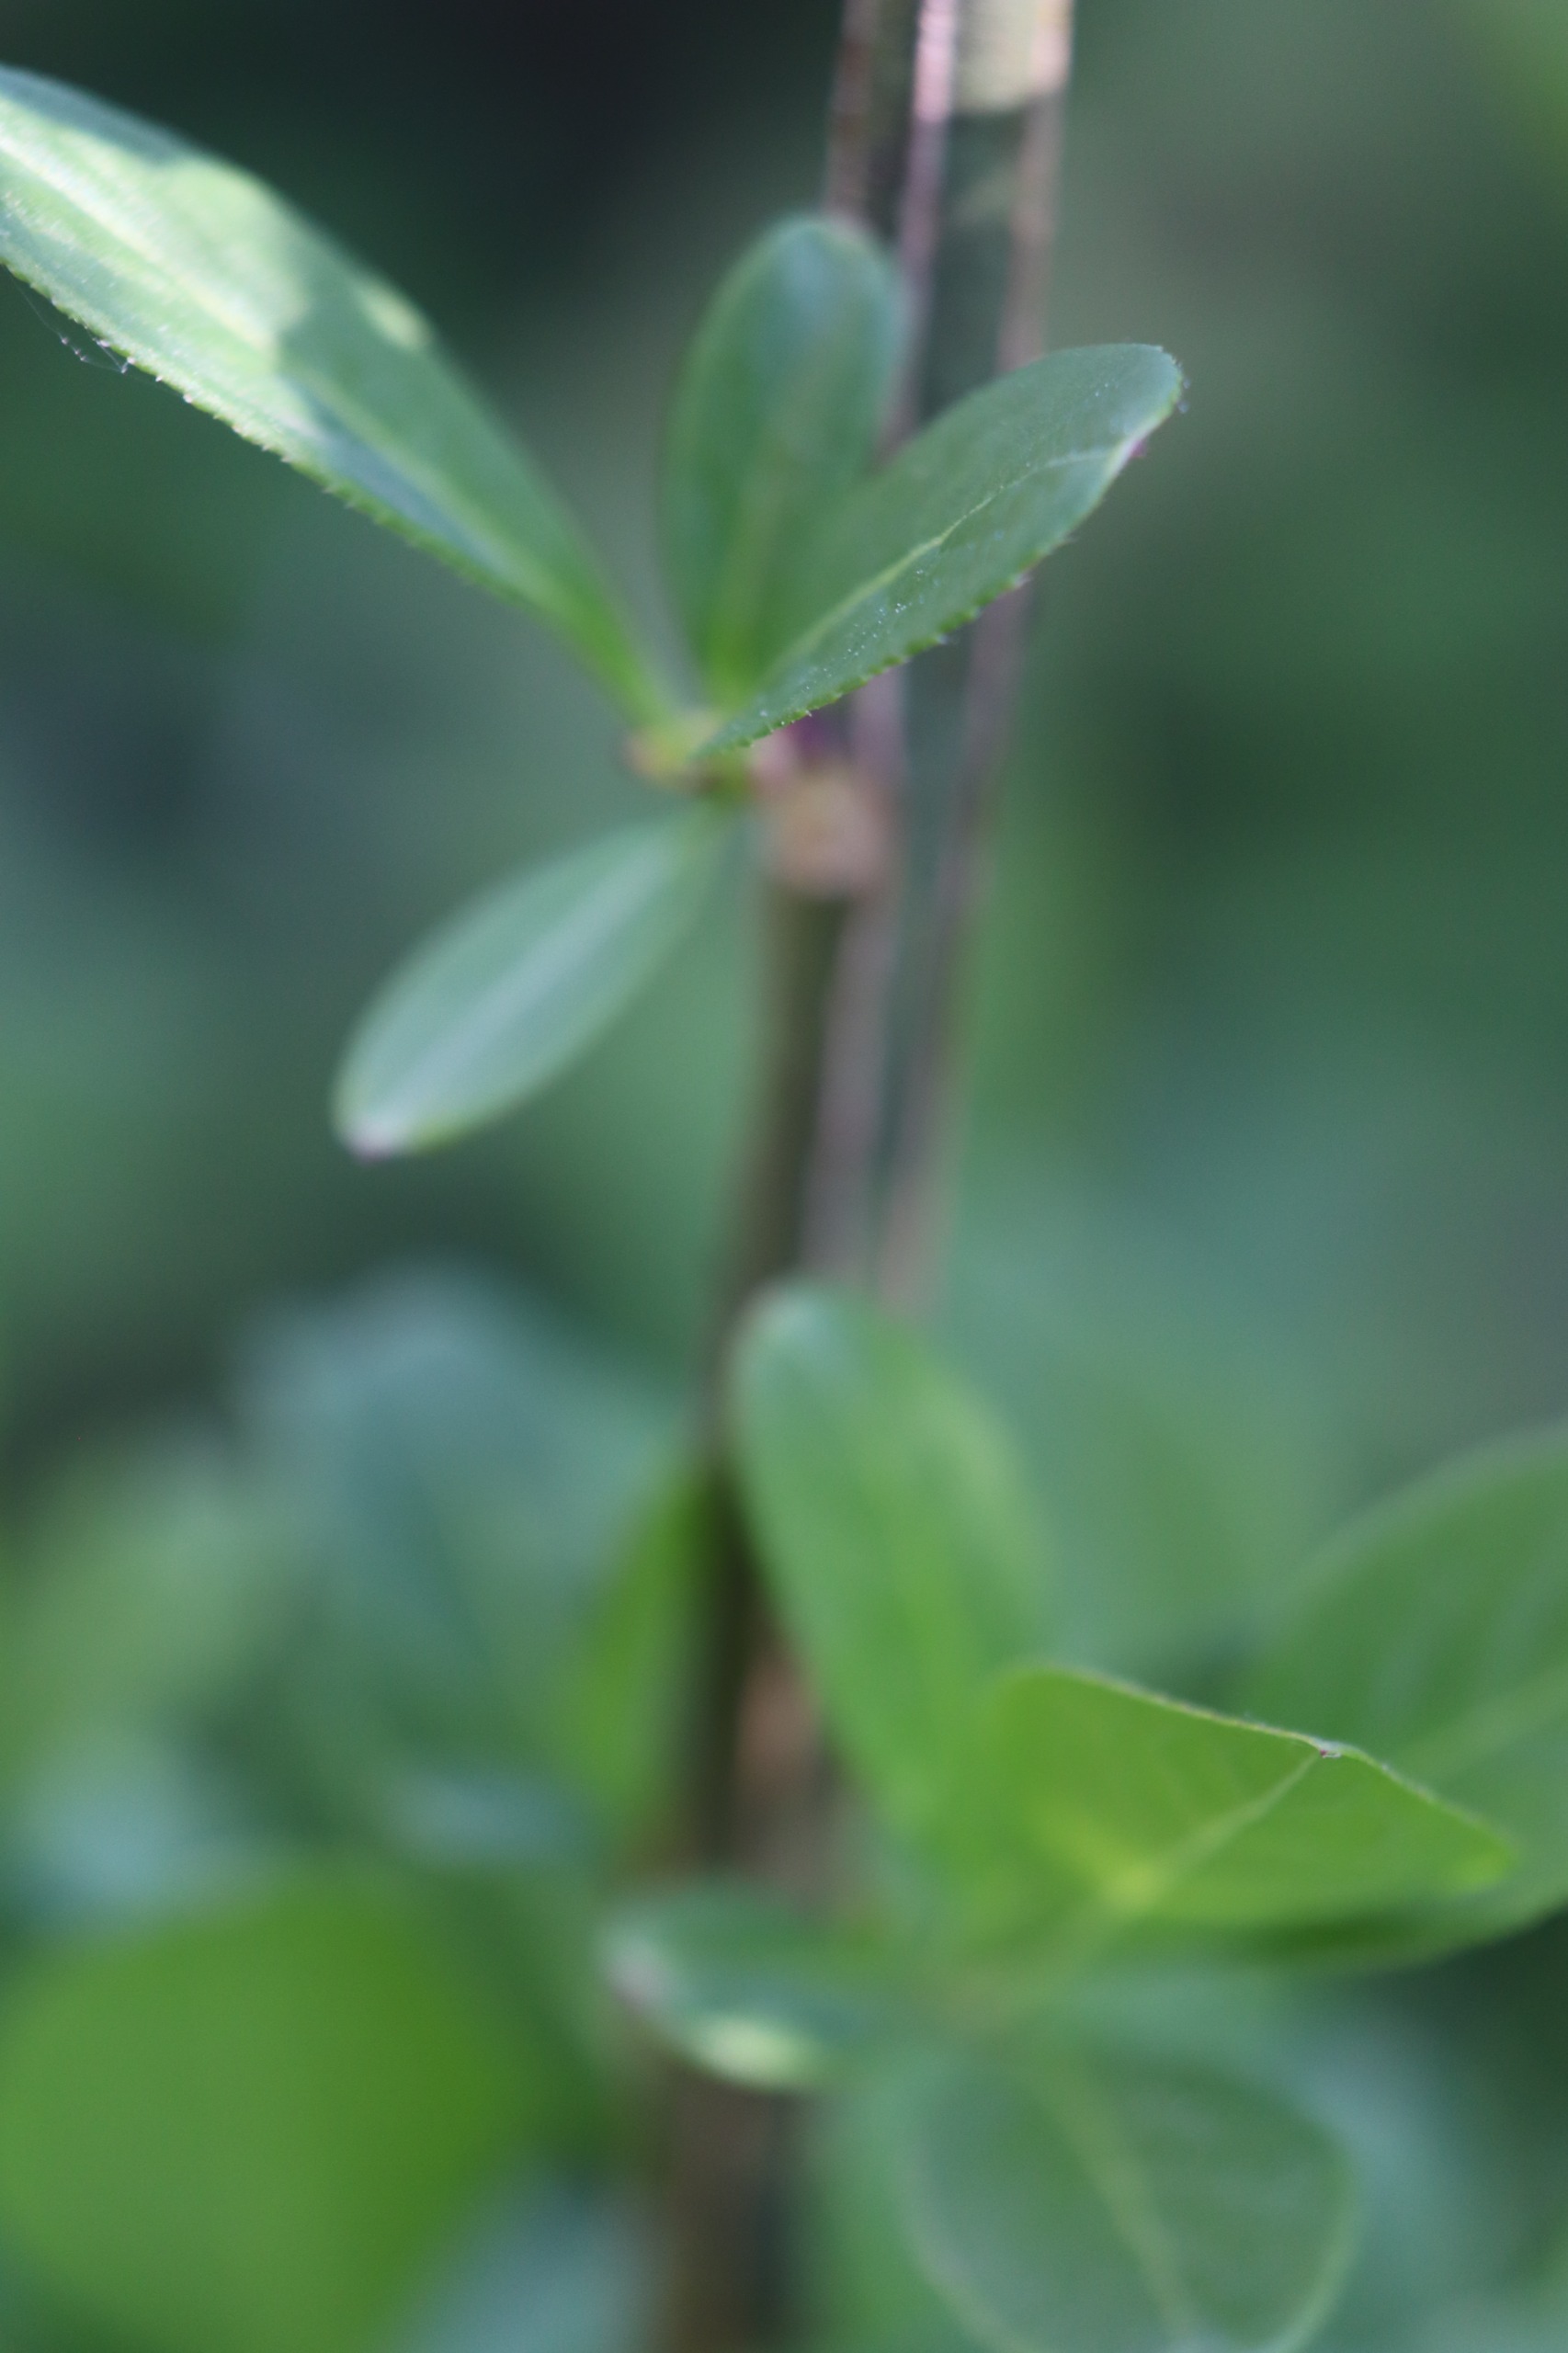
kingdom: Plantae
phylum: Tracheophyta
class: Magnoliopsida
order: Celastrales
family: Celastraceae
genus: Euonymus
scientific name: Euonymus europaeus
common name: Benved
